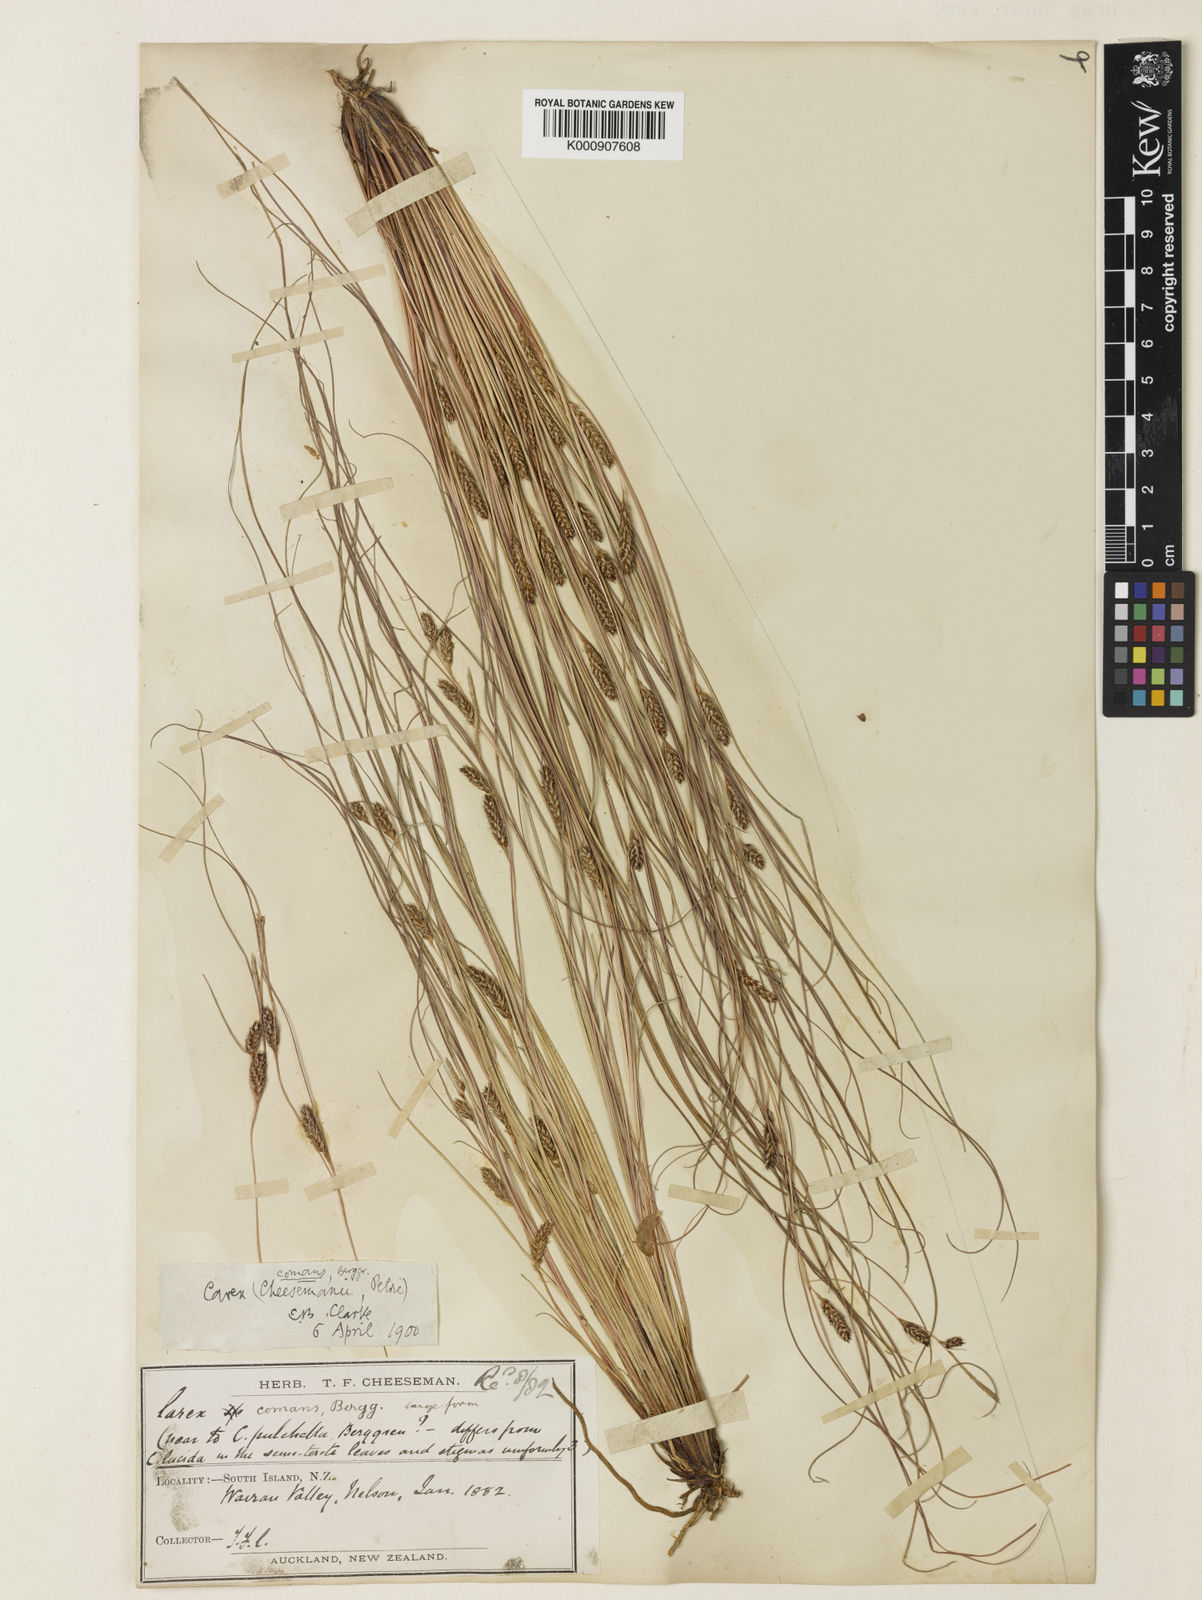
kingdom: Plantae
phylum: Tracheophyta
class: Liliopsida
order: Poales
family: Cyperaceae
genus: Carex
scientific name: Carex comans
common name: Longwood tussock
